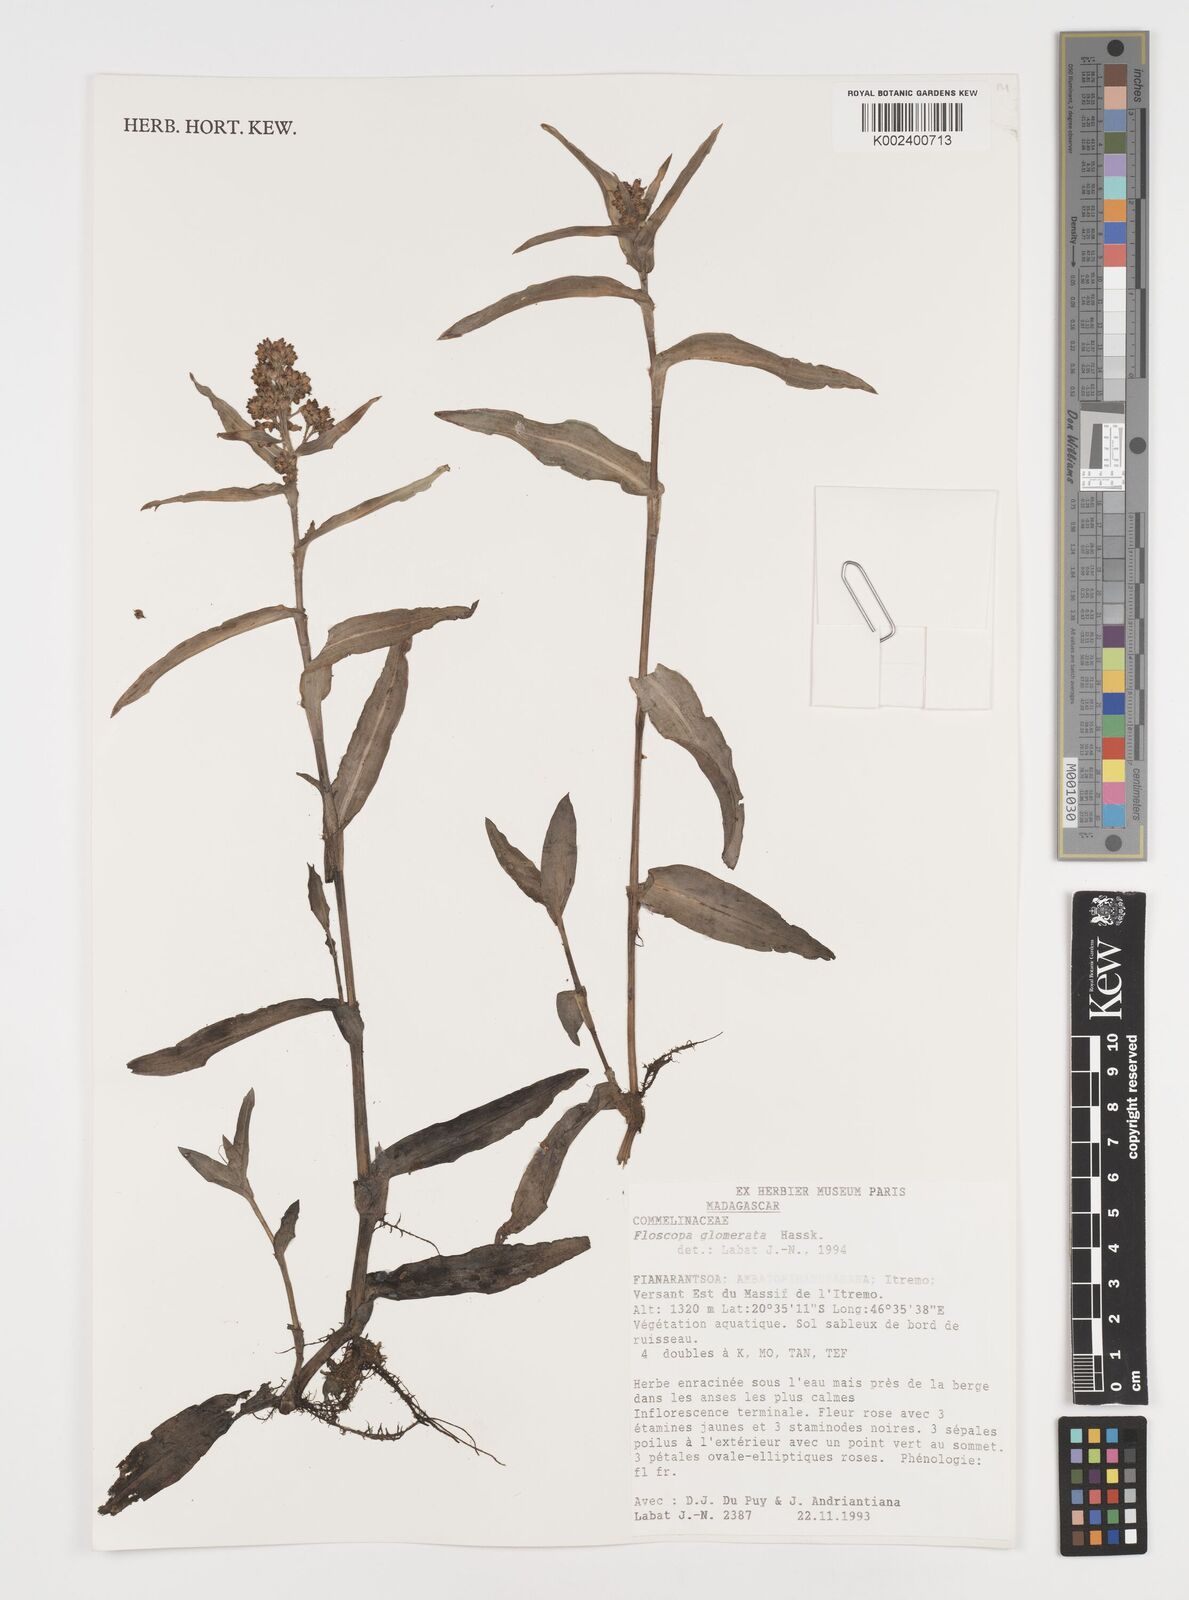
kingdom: Plantae
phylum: Tracheophyta
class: Liliopsida
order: Commelinales
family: Commelinaceae
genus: Floscopa
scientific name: Floscopa glomerata
